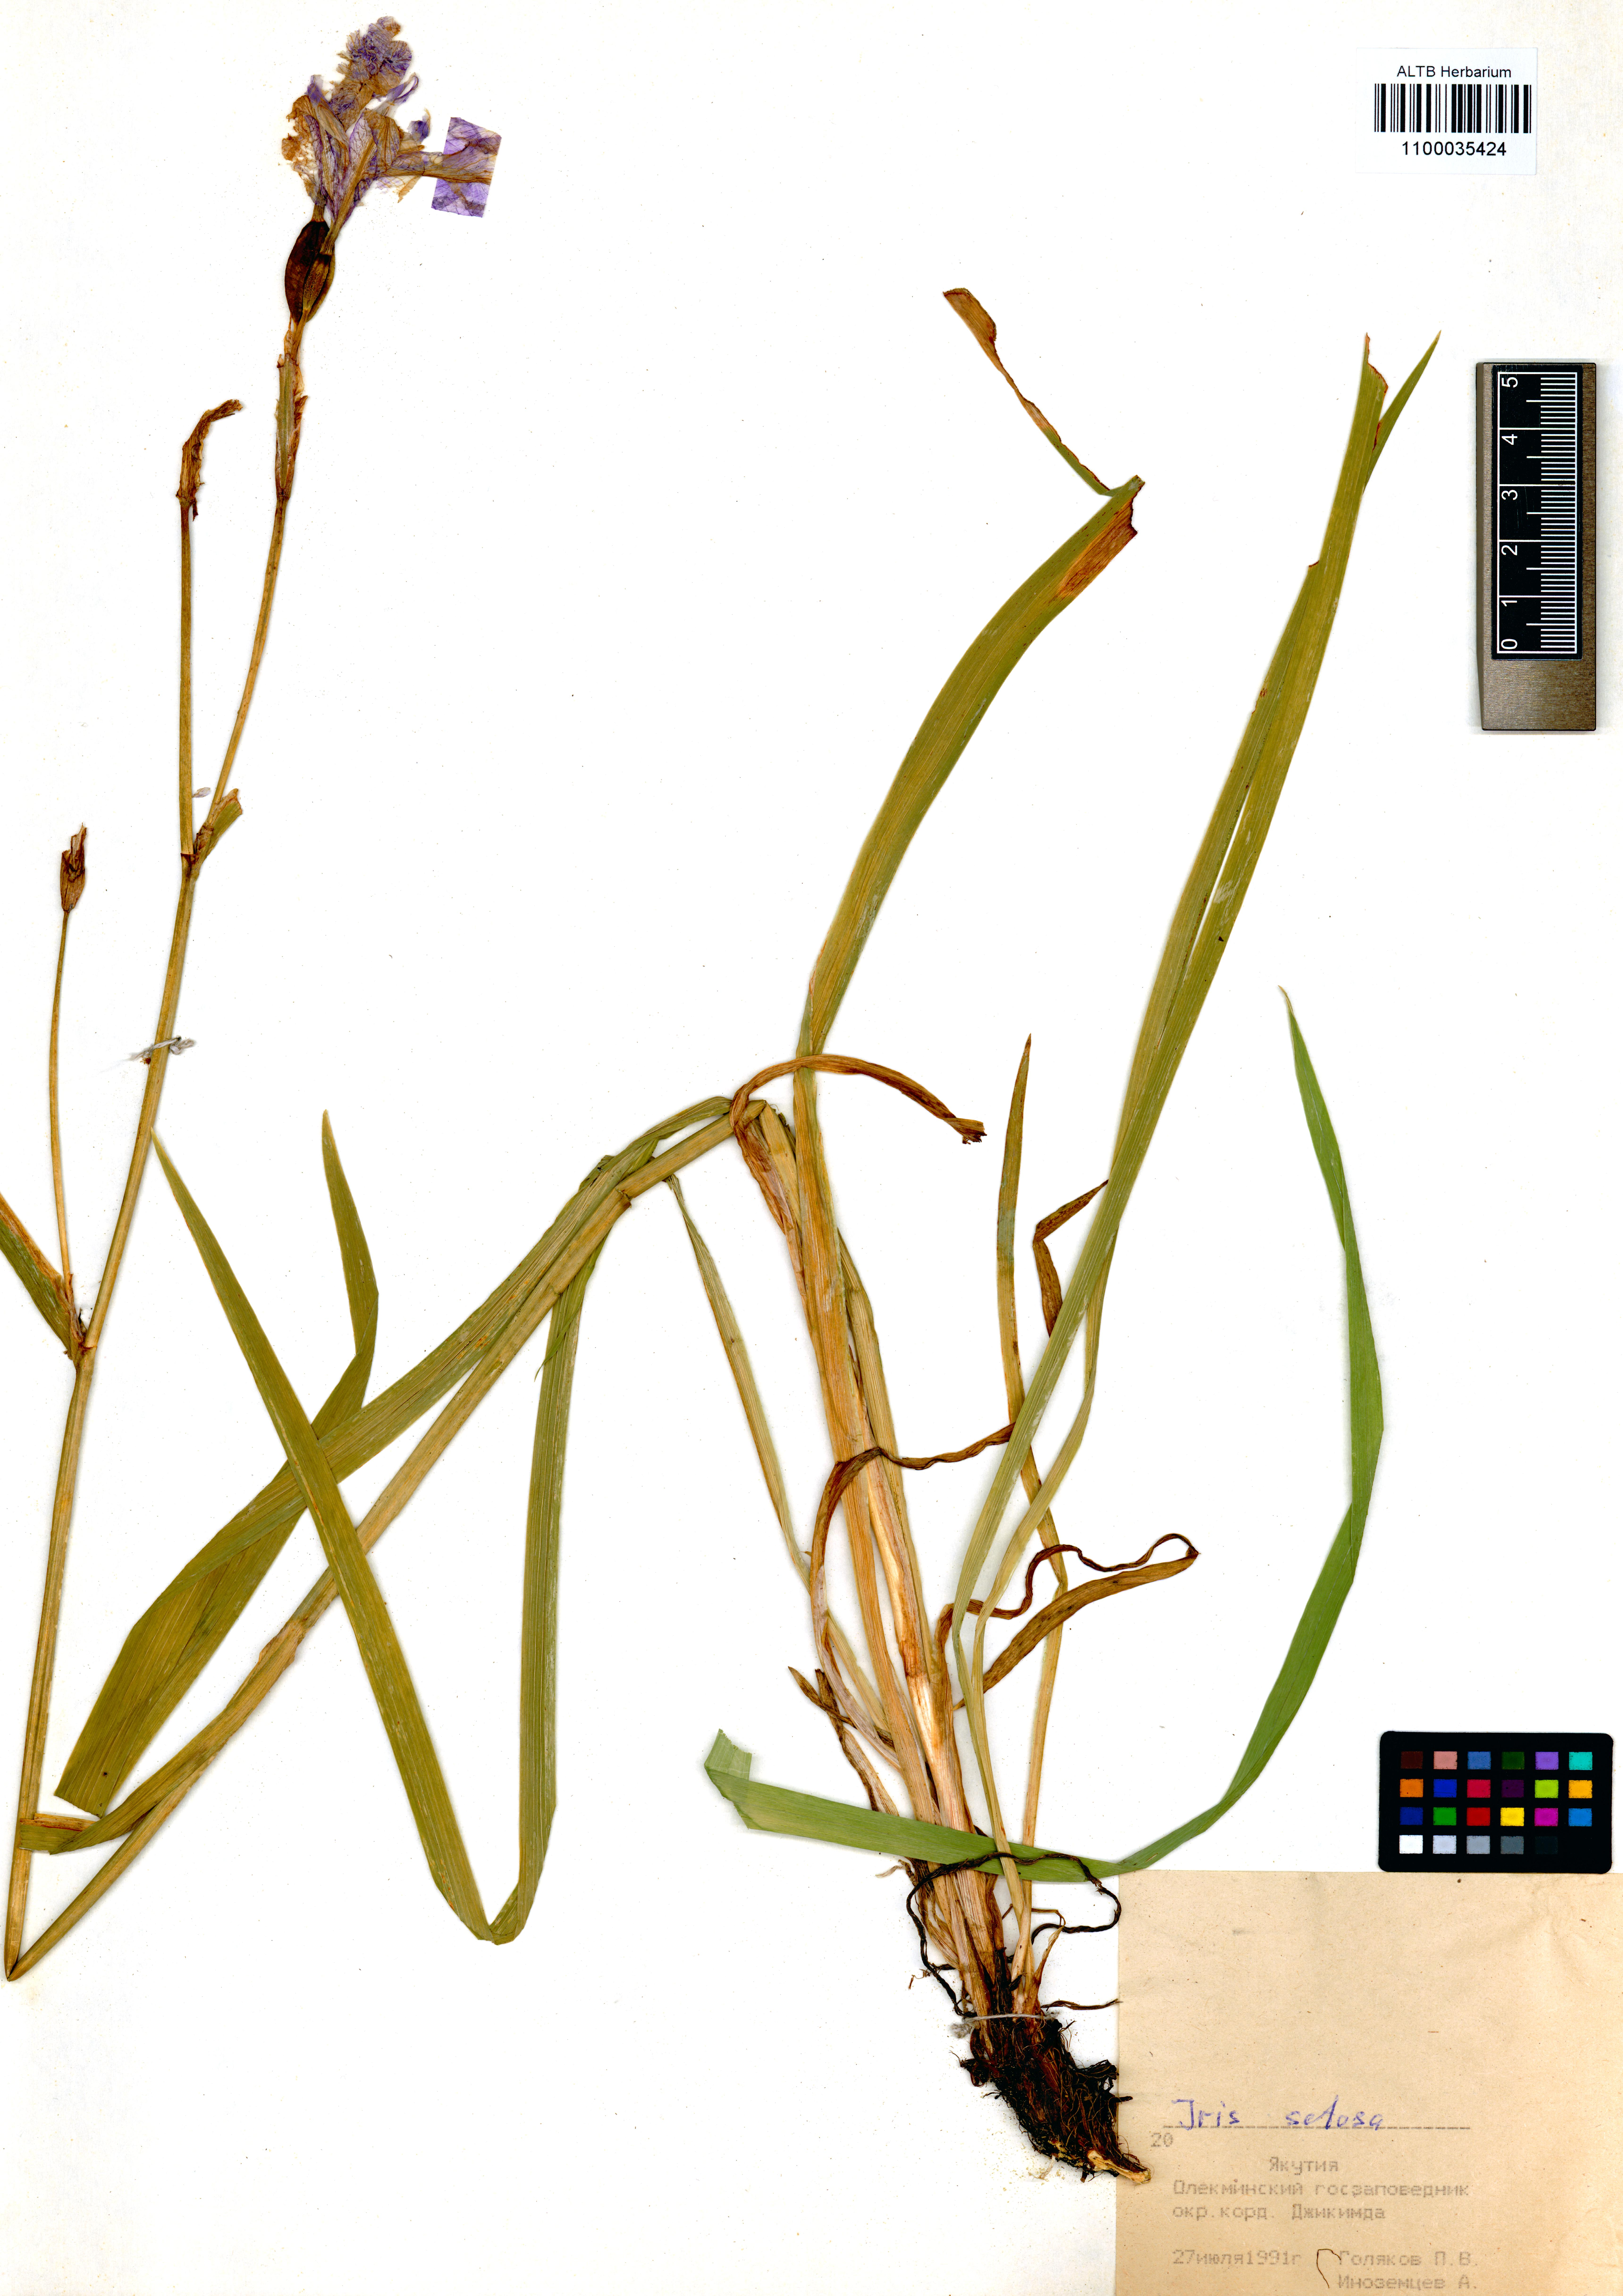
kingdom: Plantae
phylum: Tracheophyta
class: Liliopsida
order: Asparagales
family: Iridaceae
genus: Iris
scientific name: Iris setosa
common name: Arctic blue flag
